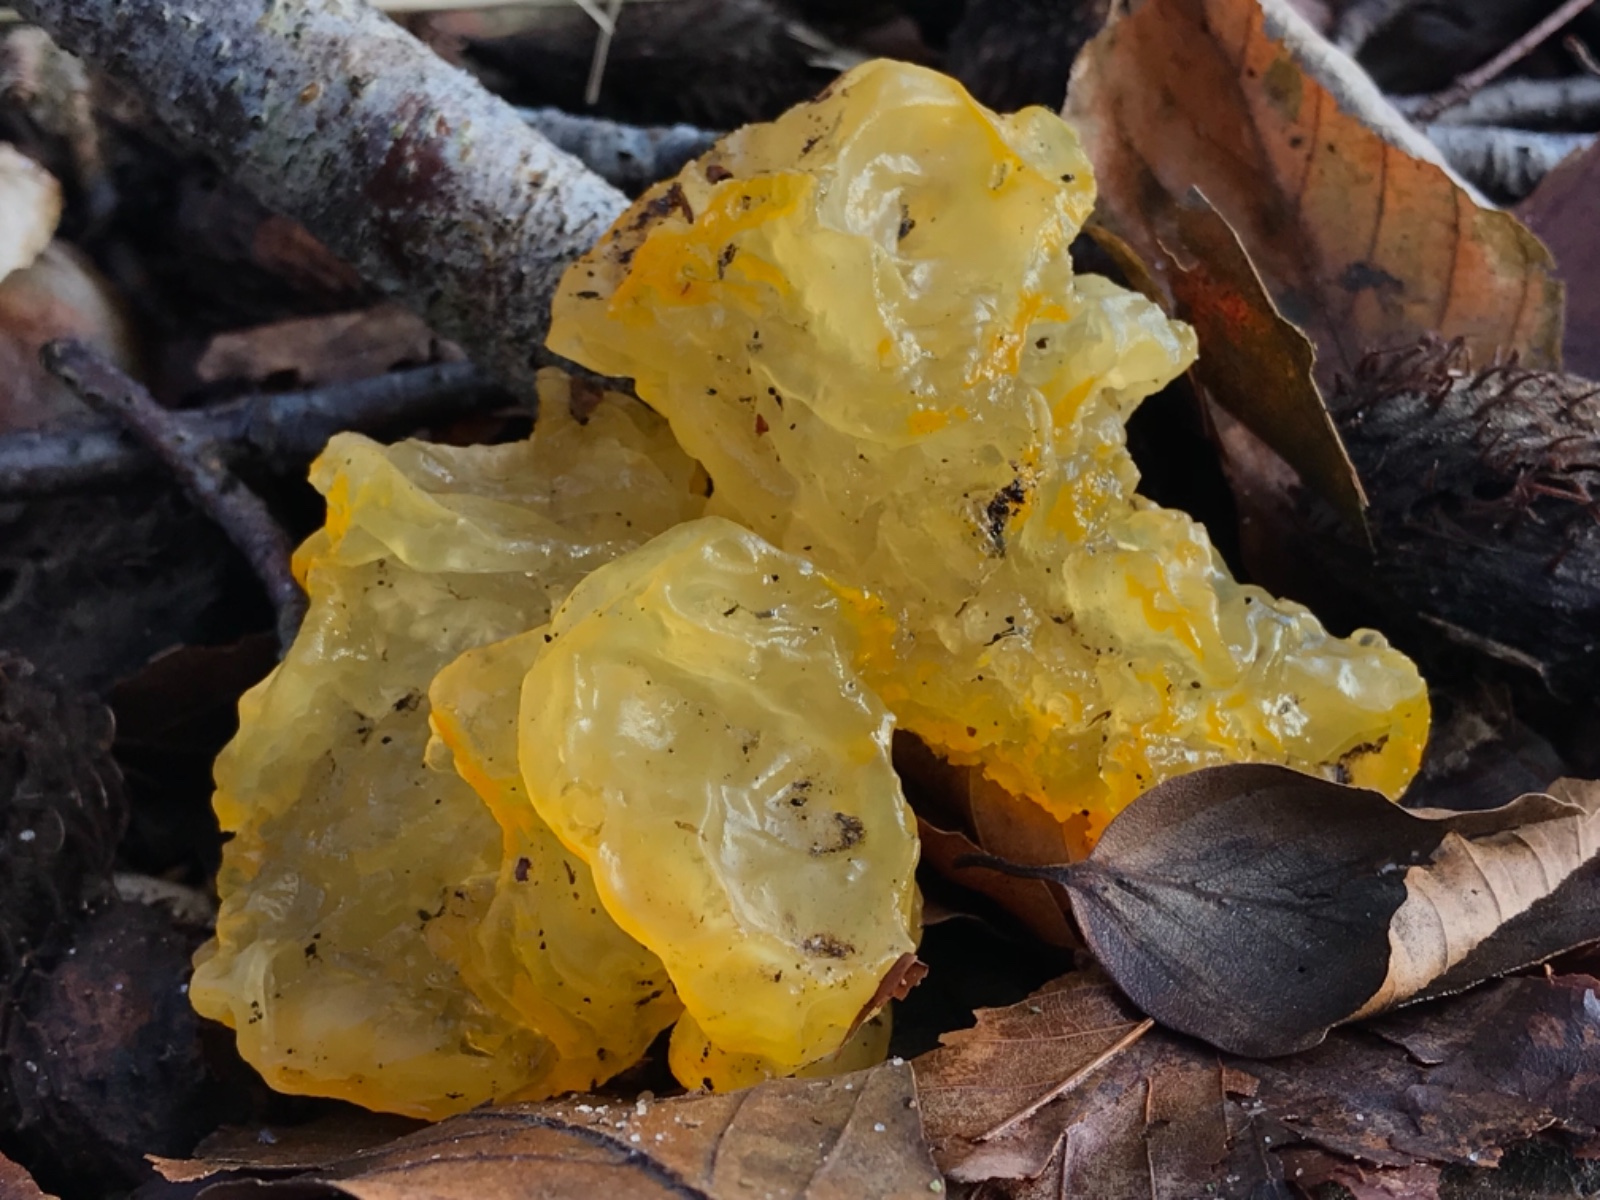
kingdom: Fungi
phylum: Basidiomycota
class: Tremellomycetes
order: Tremellales
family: Tremellaceae
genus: Tremella
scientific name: Tremella mesenterica
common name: gul bævresvamp
